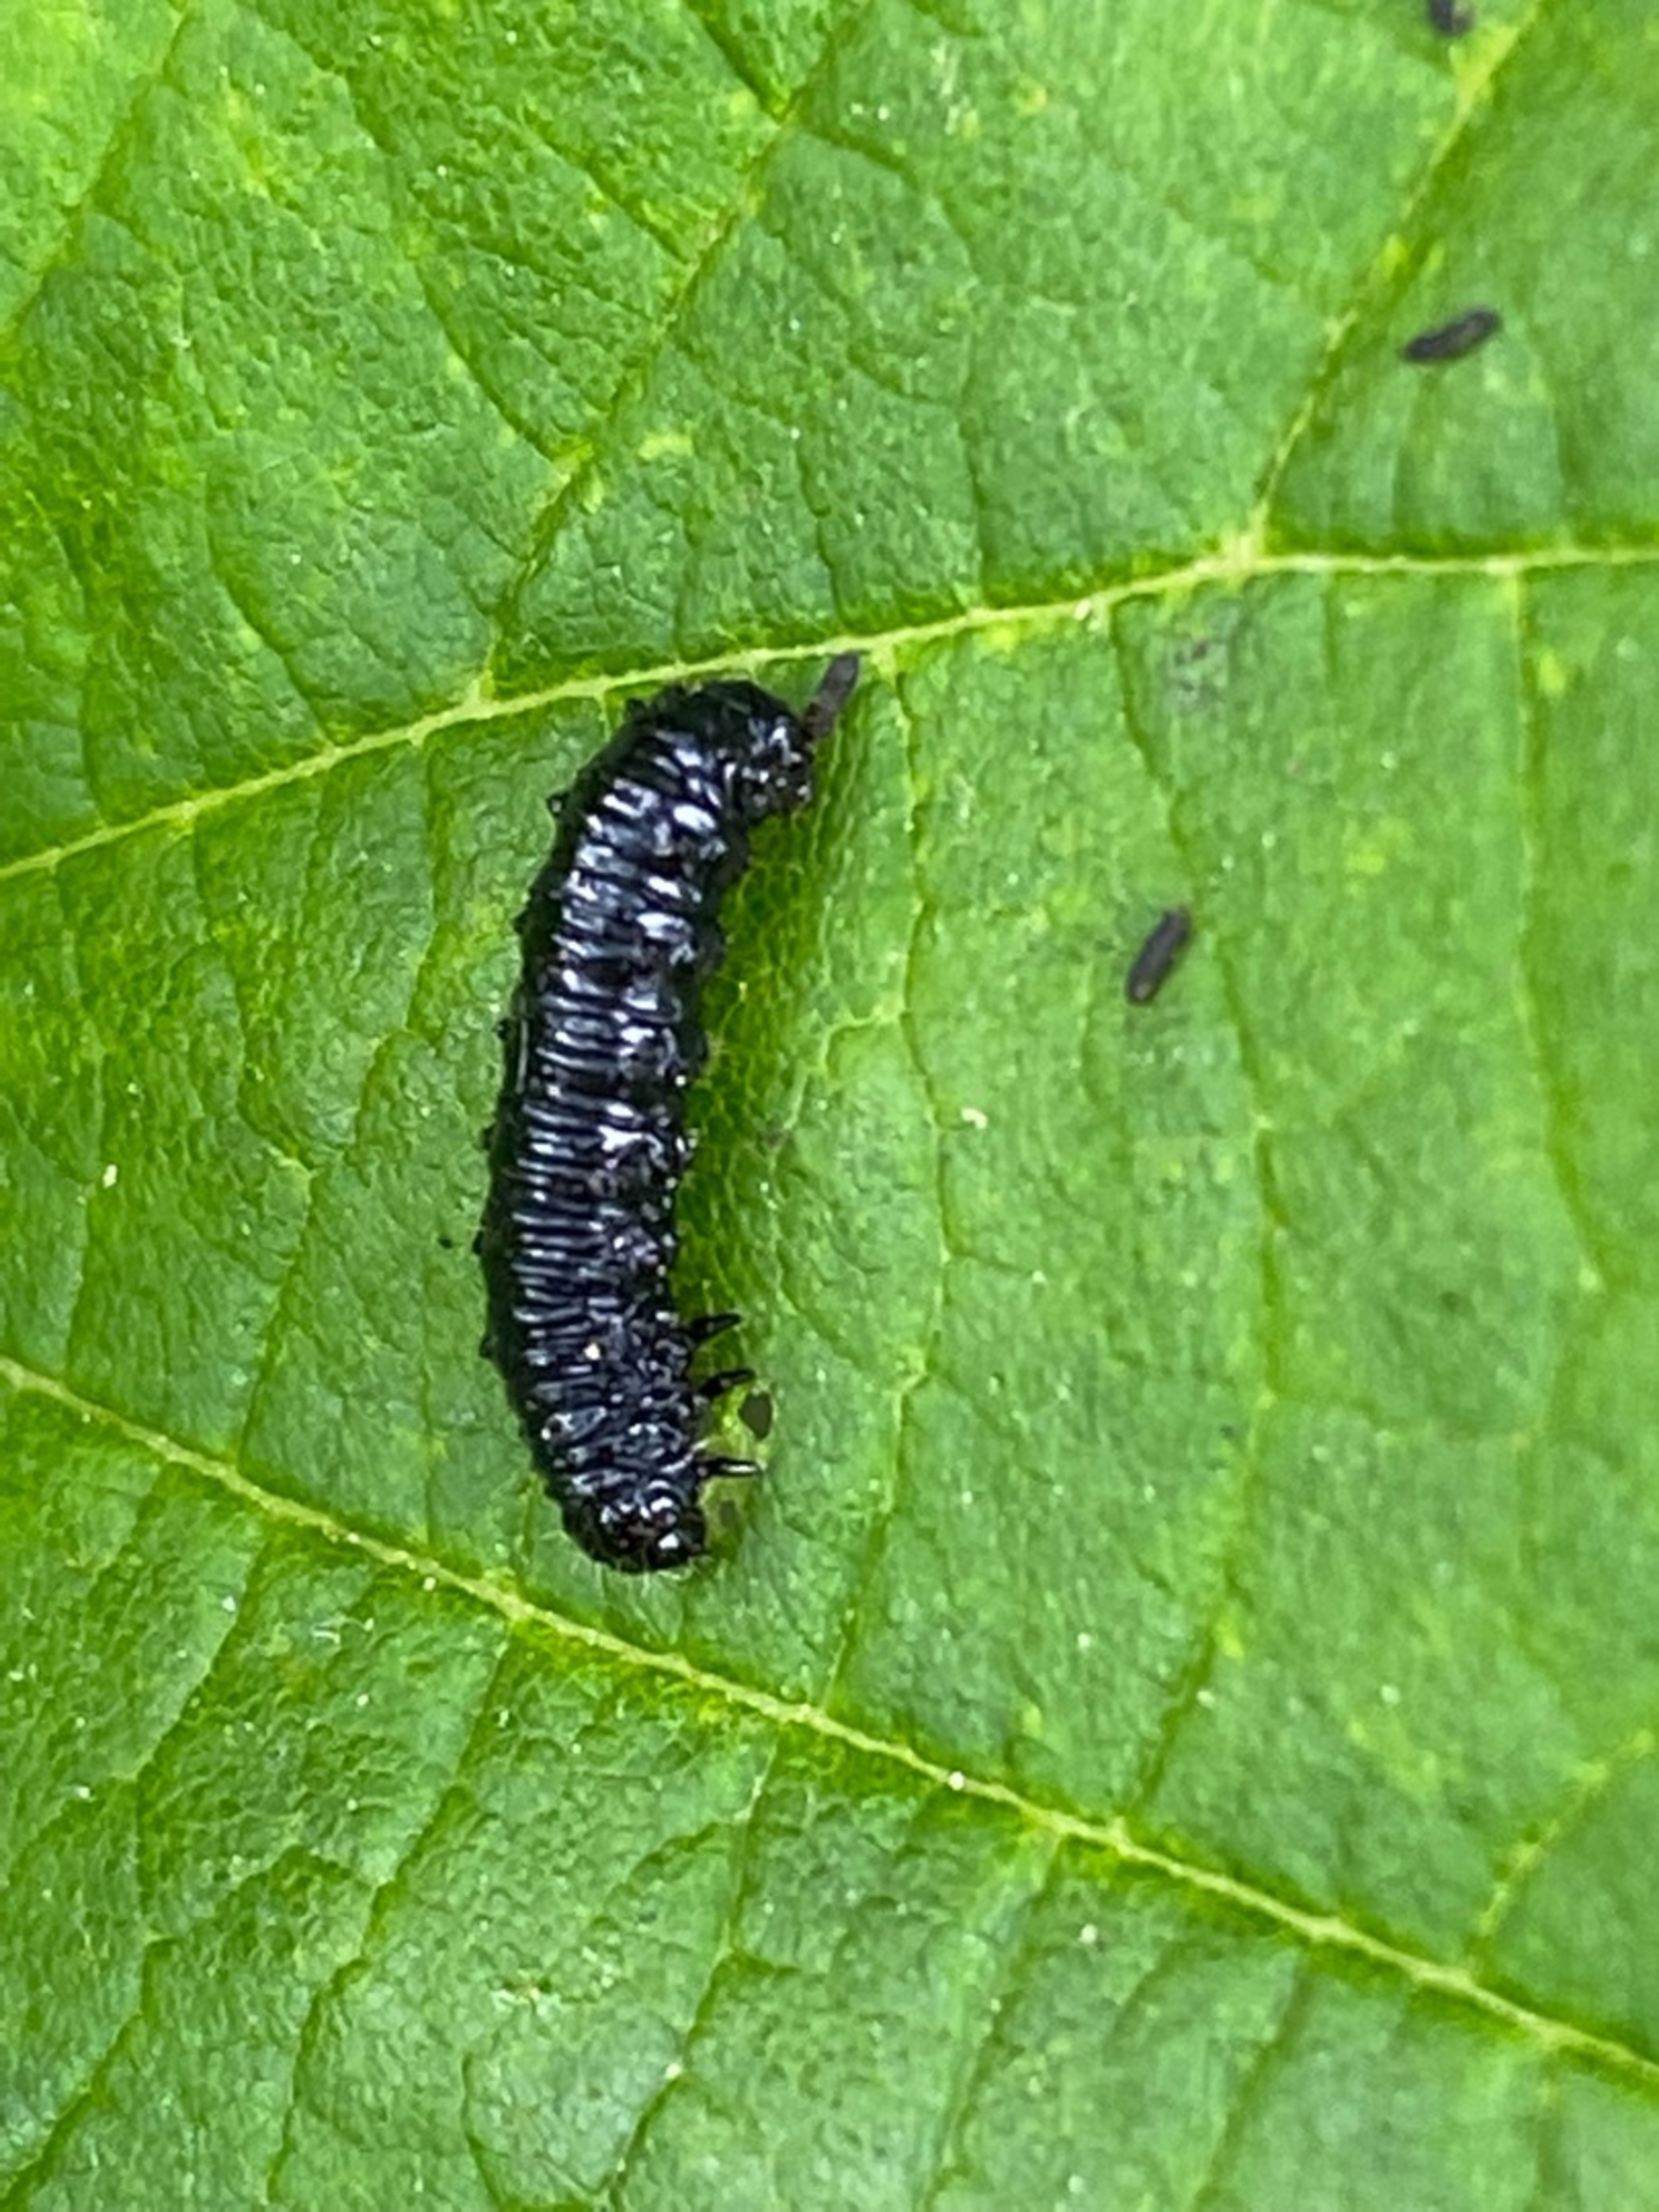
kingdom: Animalia
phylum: Arthropoda
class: Insecta
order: Coleoptera
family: Chrysomelidae
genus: Agelastica
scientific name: Agelastica alni
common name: Ellebladbille
